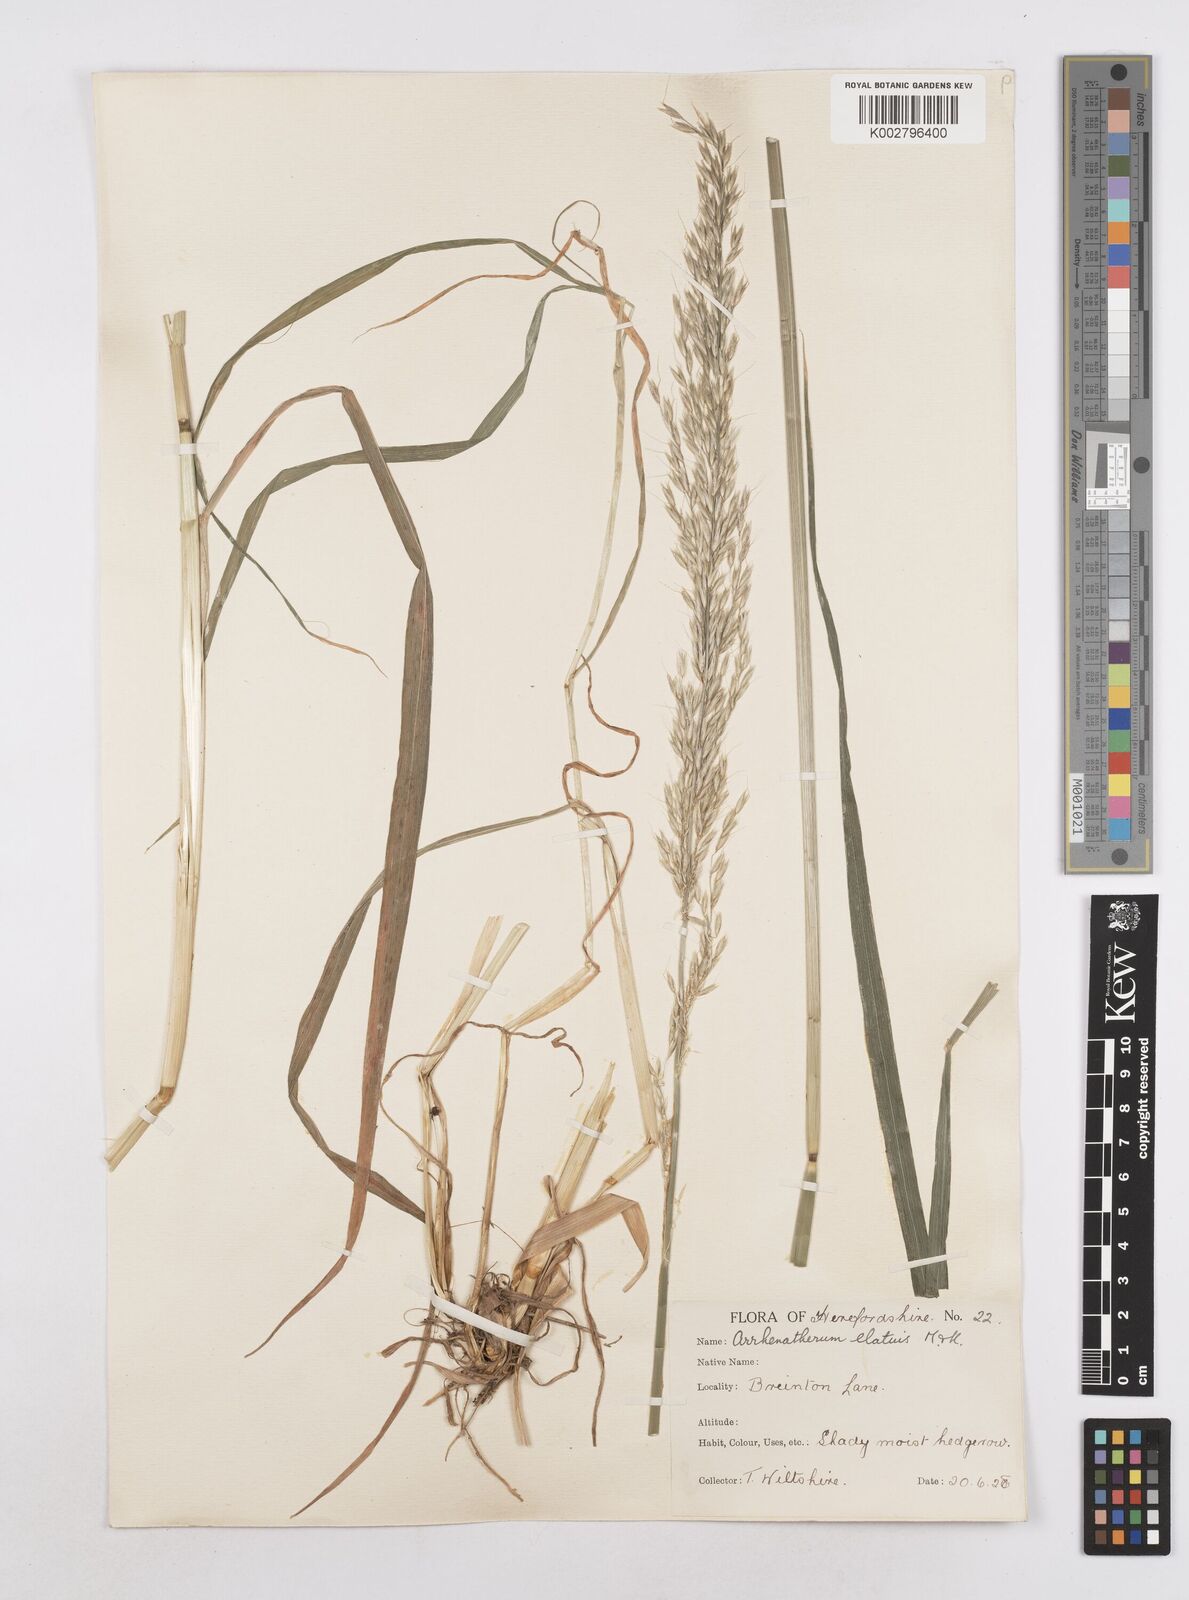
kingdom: Plantae
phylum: Tracheophyta
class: Liliopsida
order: Poales
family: Poaceae
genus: Arrhenatherum
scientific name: Arrhenatherum elatius
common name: Tall oatgrass
